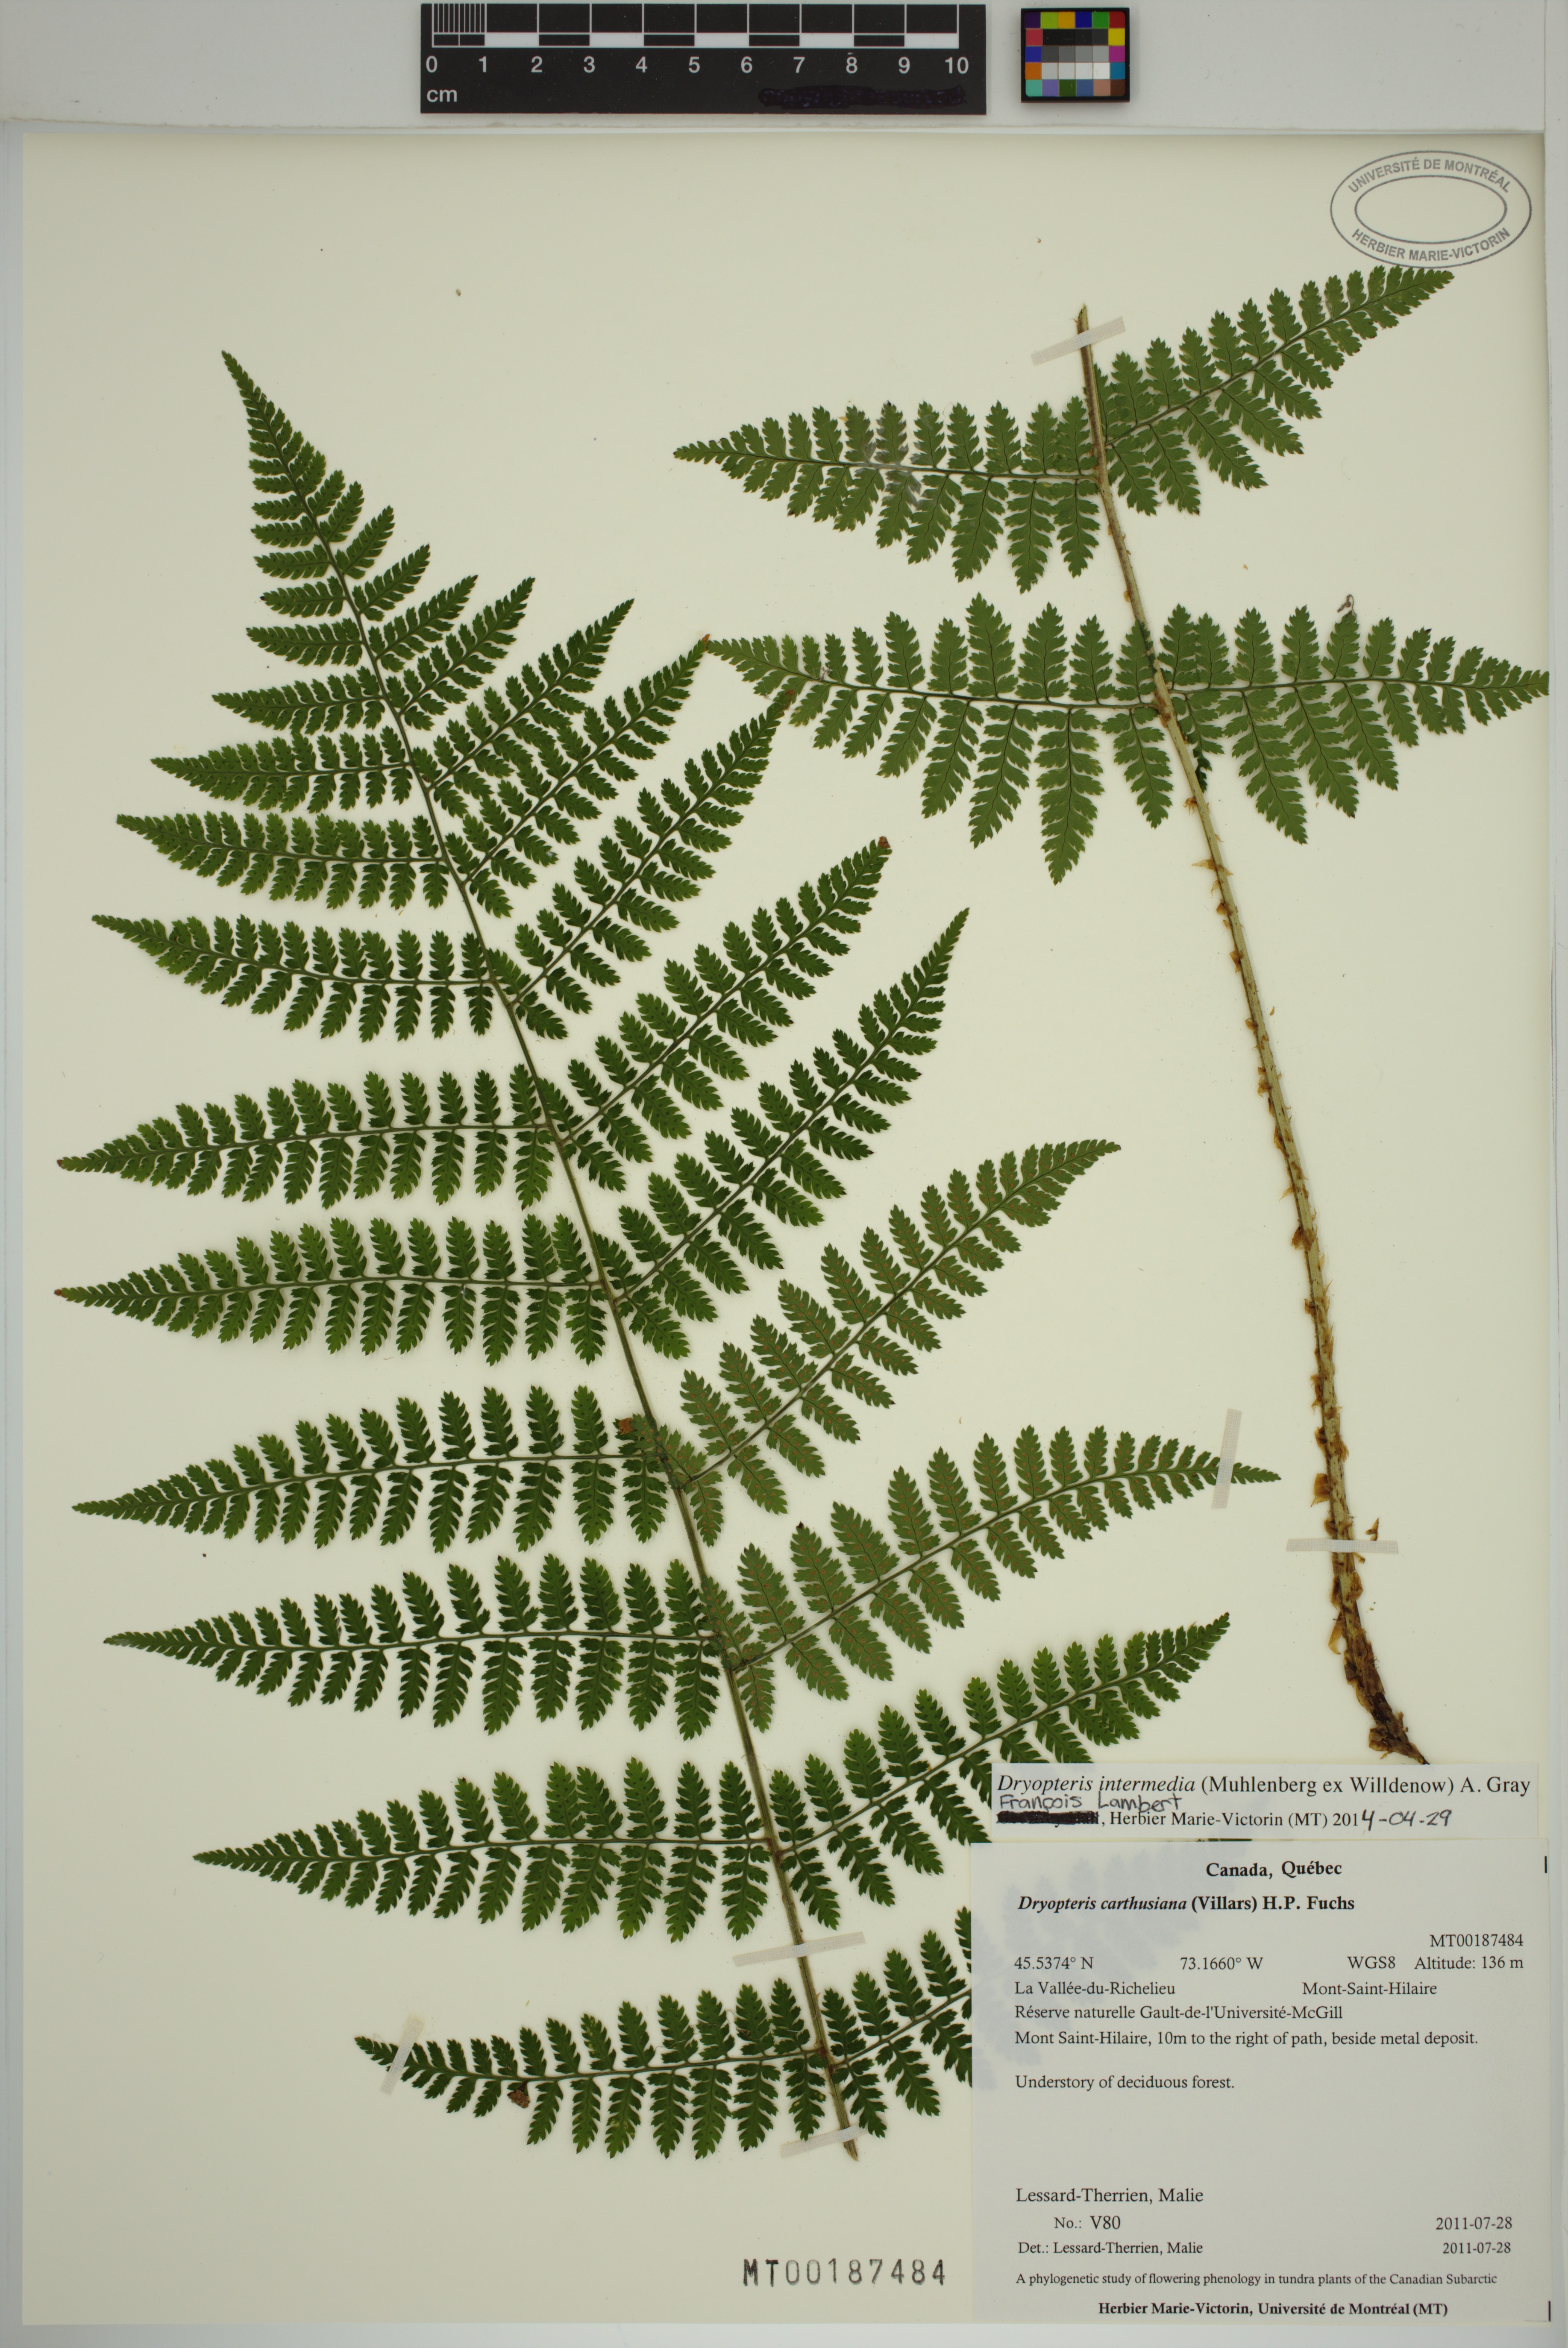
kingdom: Plantae
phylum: Tracheophyta
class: Polypodiopsida
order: Polypodiales
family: Dryopteridaceae
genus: Dryopteris
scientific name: Dryopteris intermedia
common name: Evergreen wood fern
